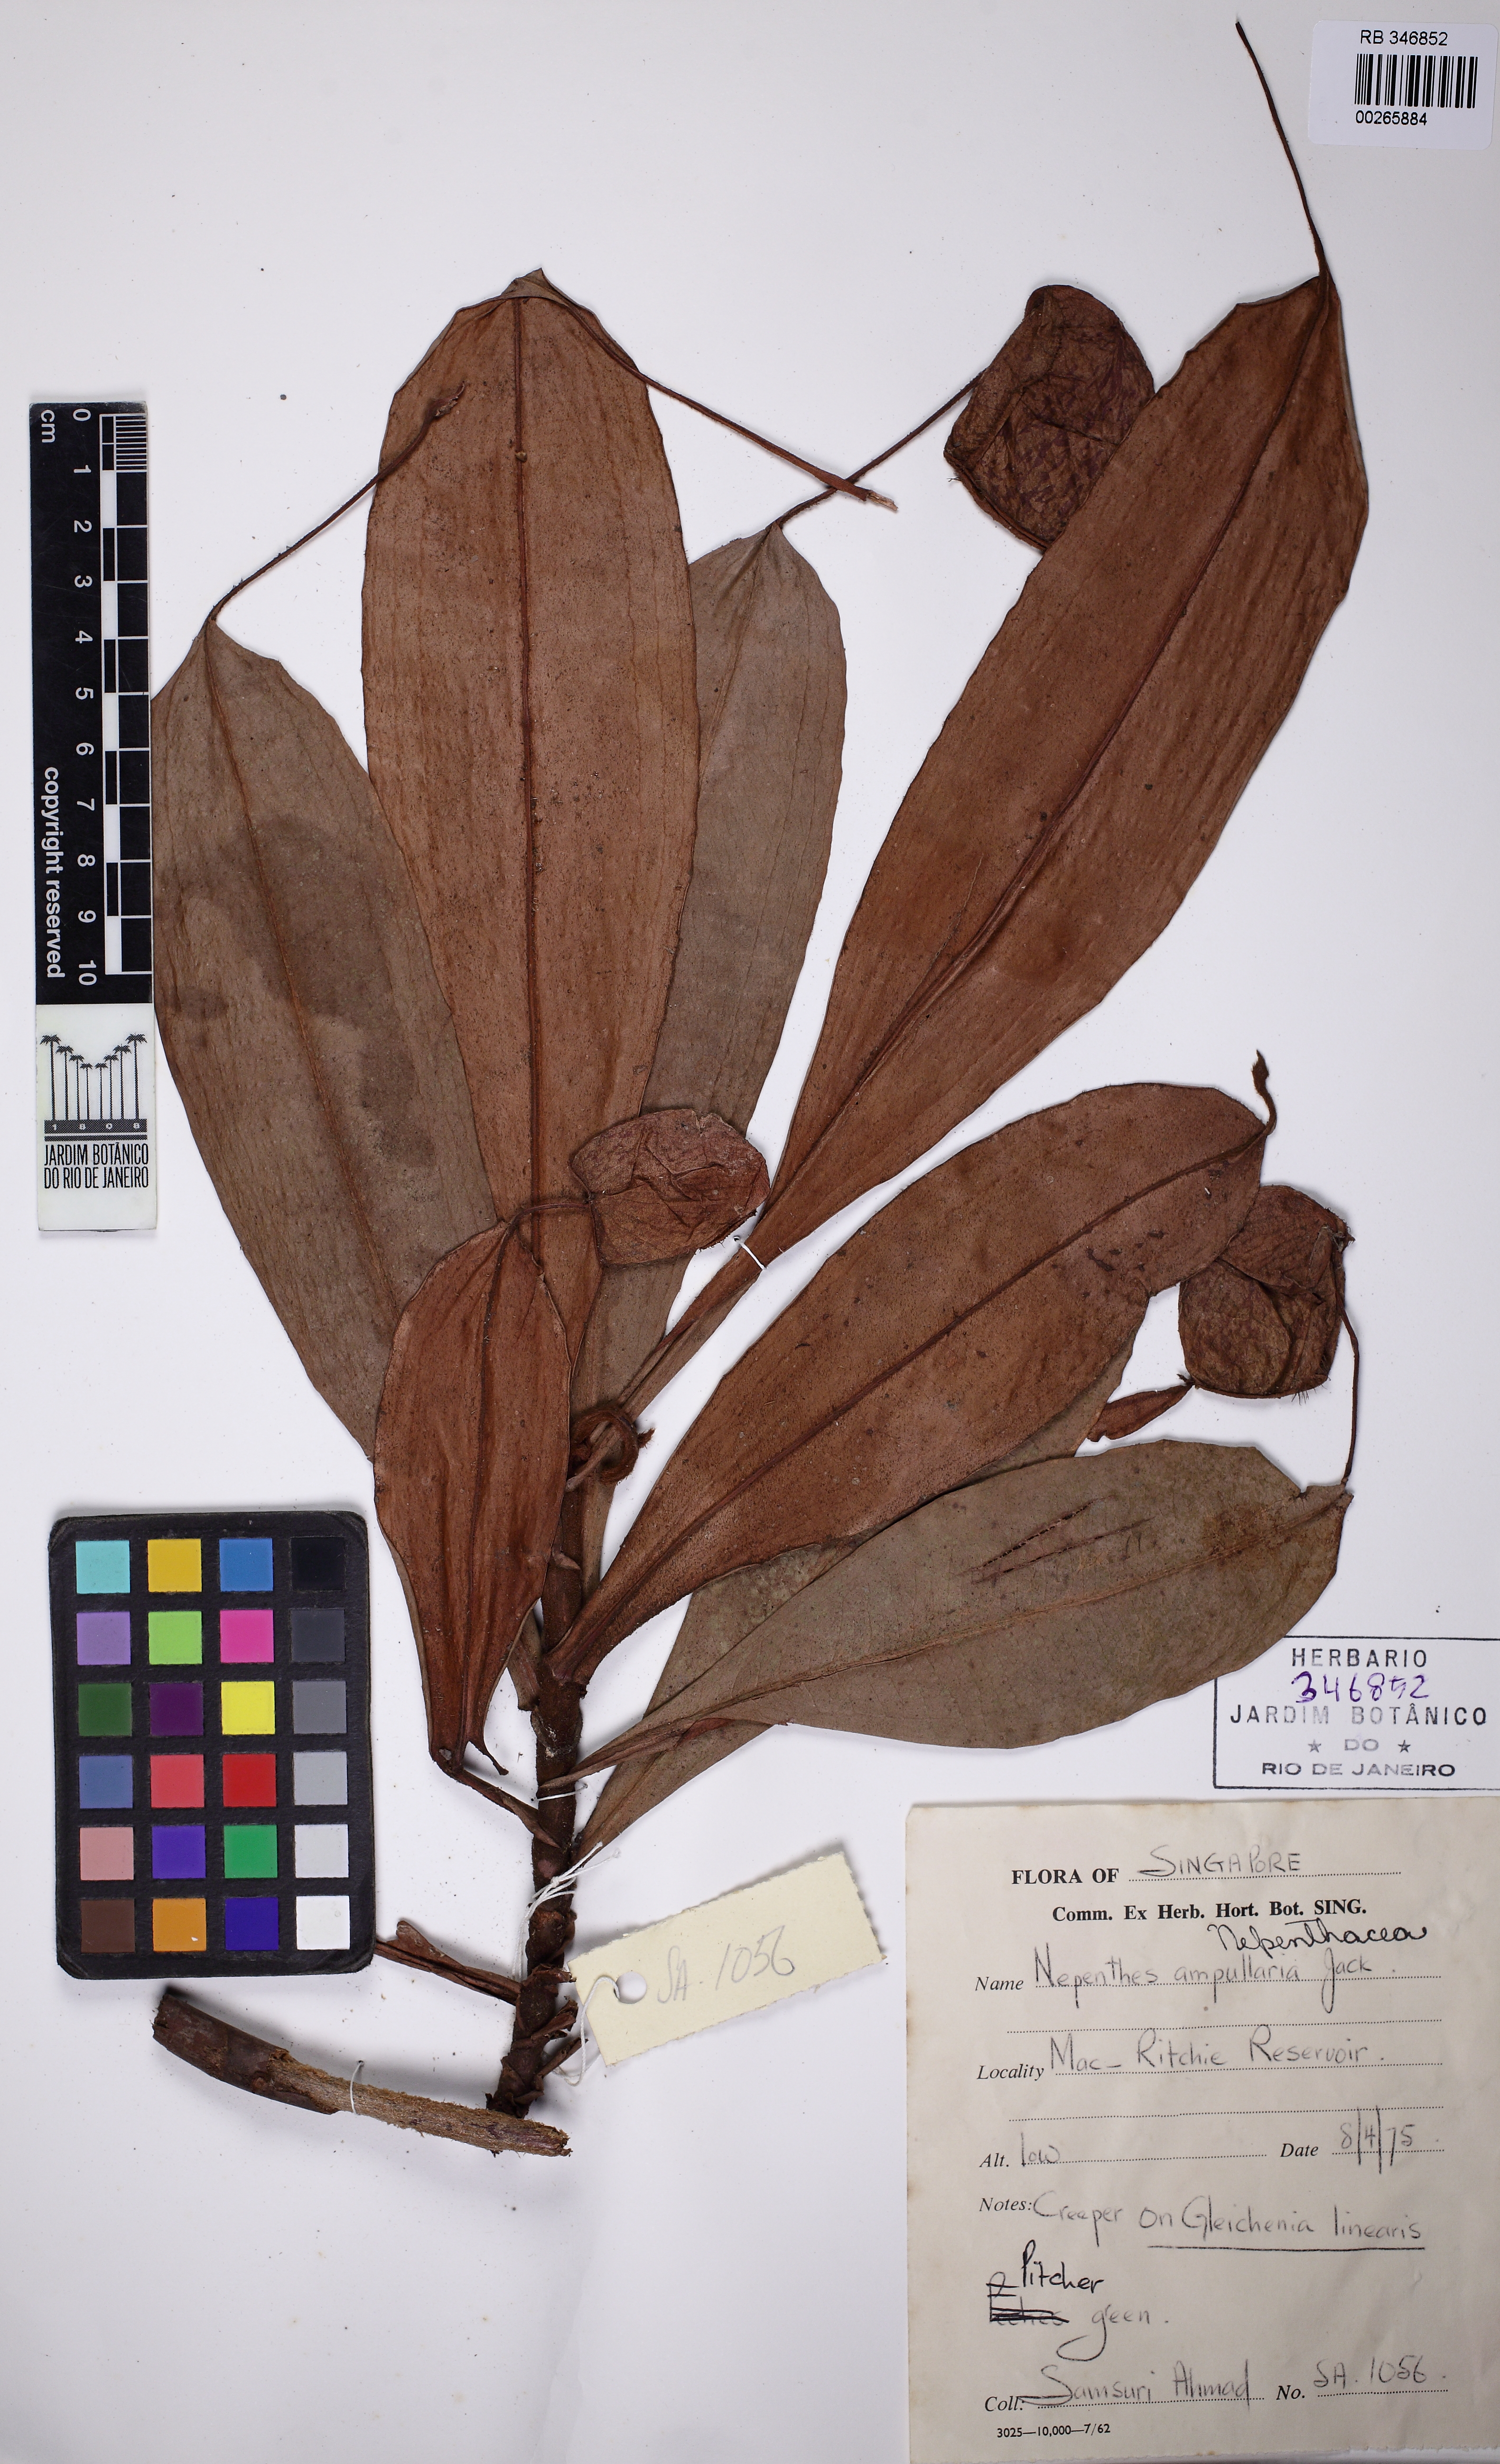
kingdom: Plantae
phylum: Tracheophyta
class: Magnoliopsida
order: Caryophyllales
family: Nepenthaceae
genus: Nepenthes
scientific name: Nepenthes ampullaria
